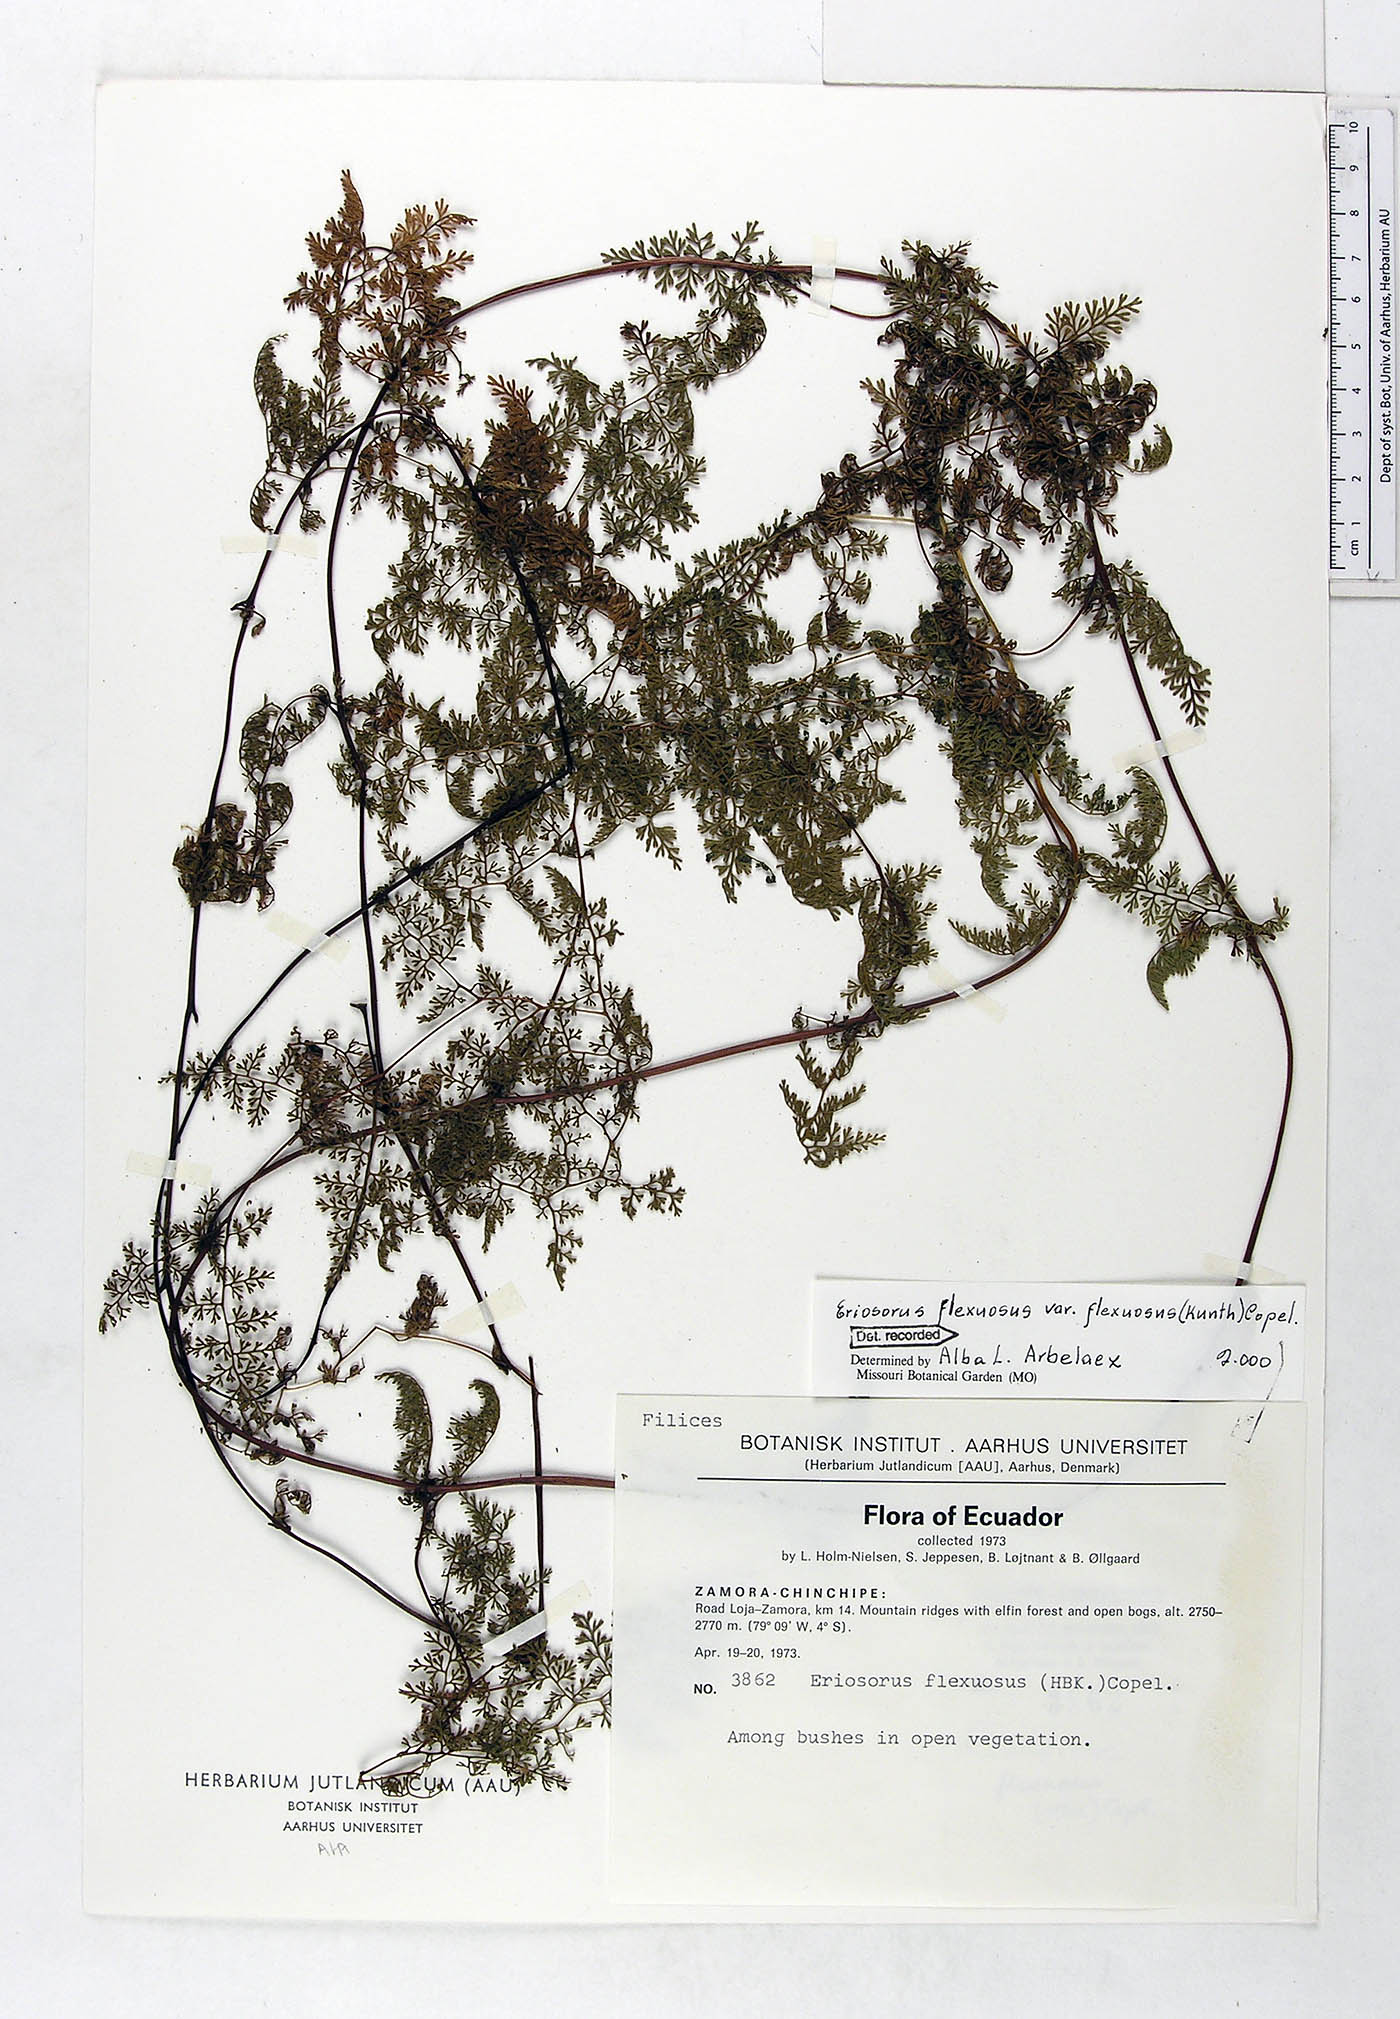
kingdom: Plantae
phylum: Tracheophyta
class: Polypodiopsida
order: Polypodiales
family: Pteridaceae
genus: Jamesonia
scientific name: Jamesonia flexuosa
